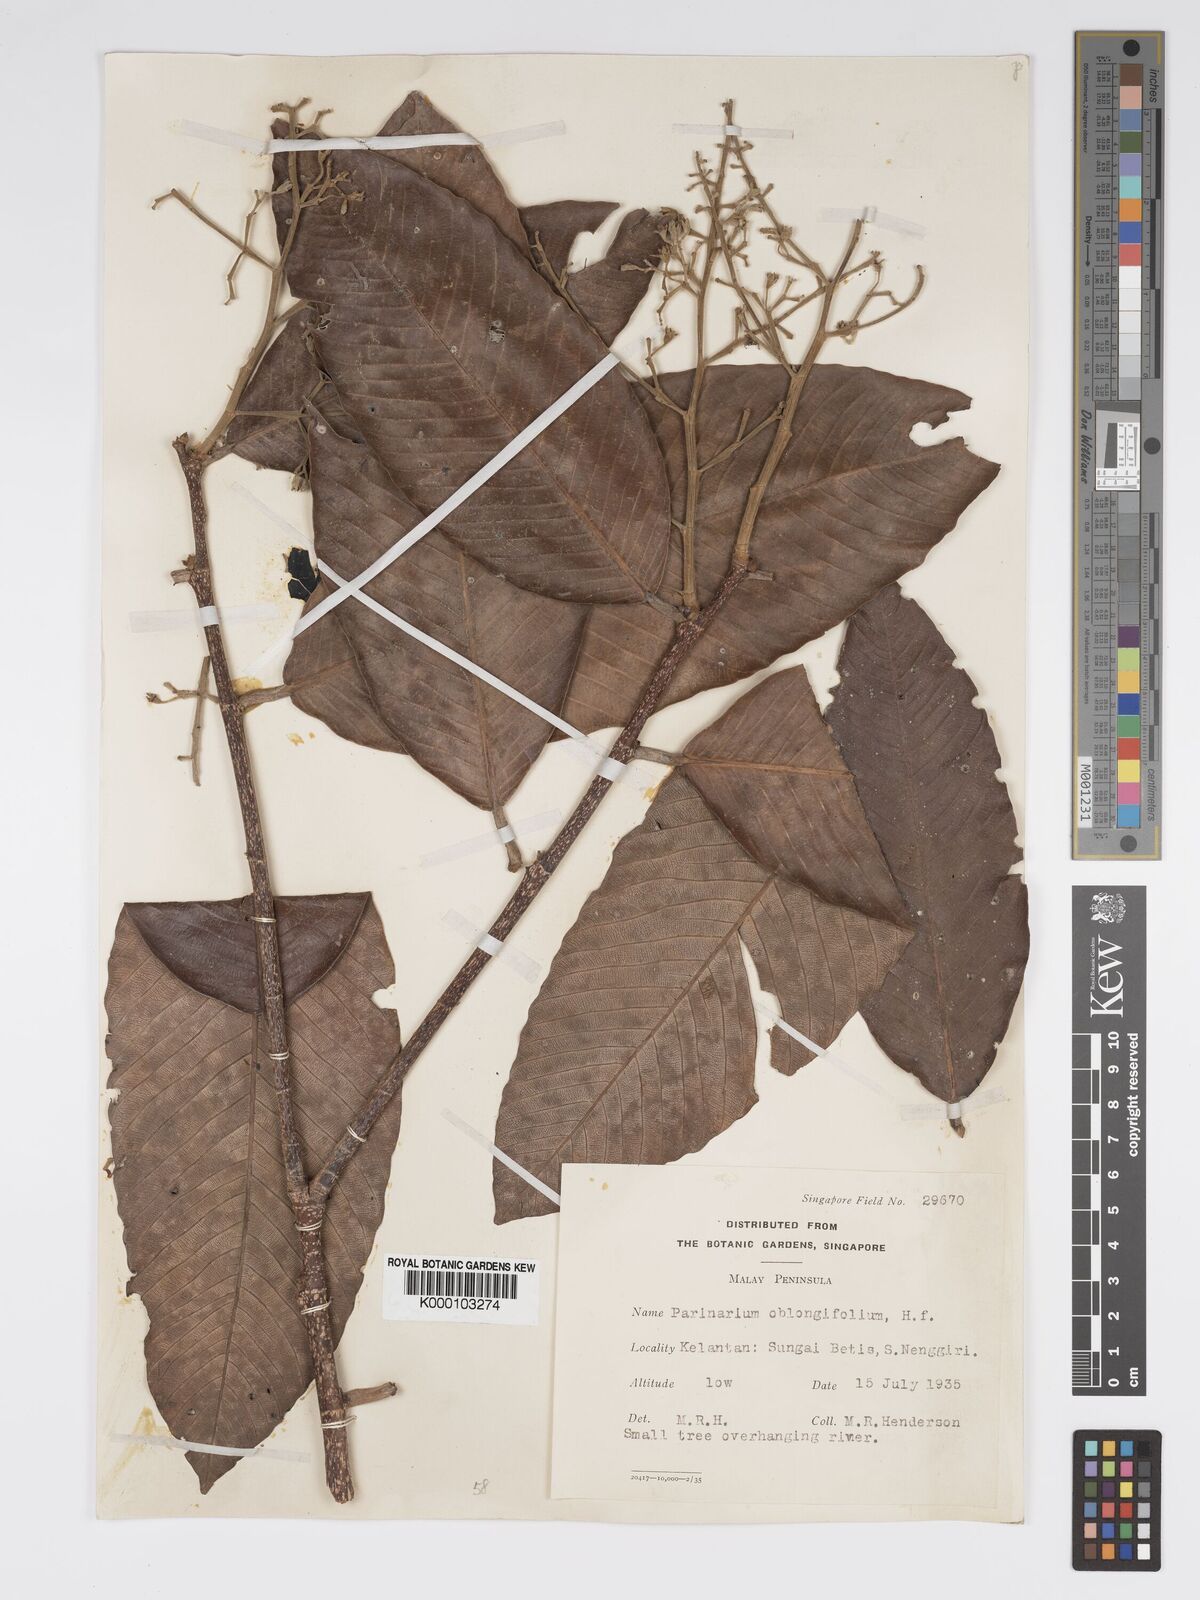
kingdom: Plantae
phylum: Tracheophyta
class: Magnoliopsida
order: Malpighiales
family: Chrysobalanaceae
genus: Parinari
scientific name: Parinari oblongifolia
